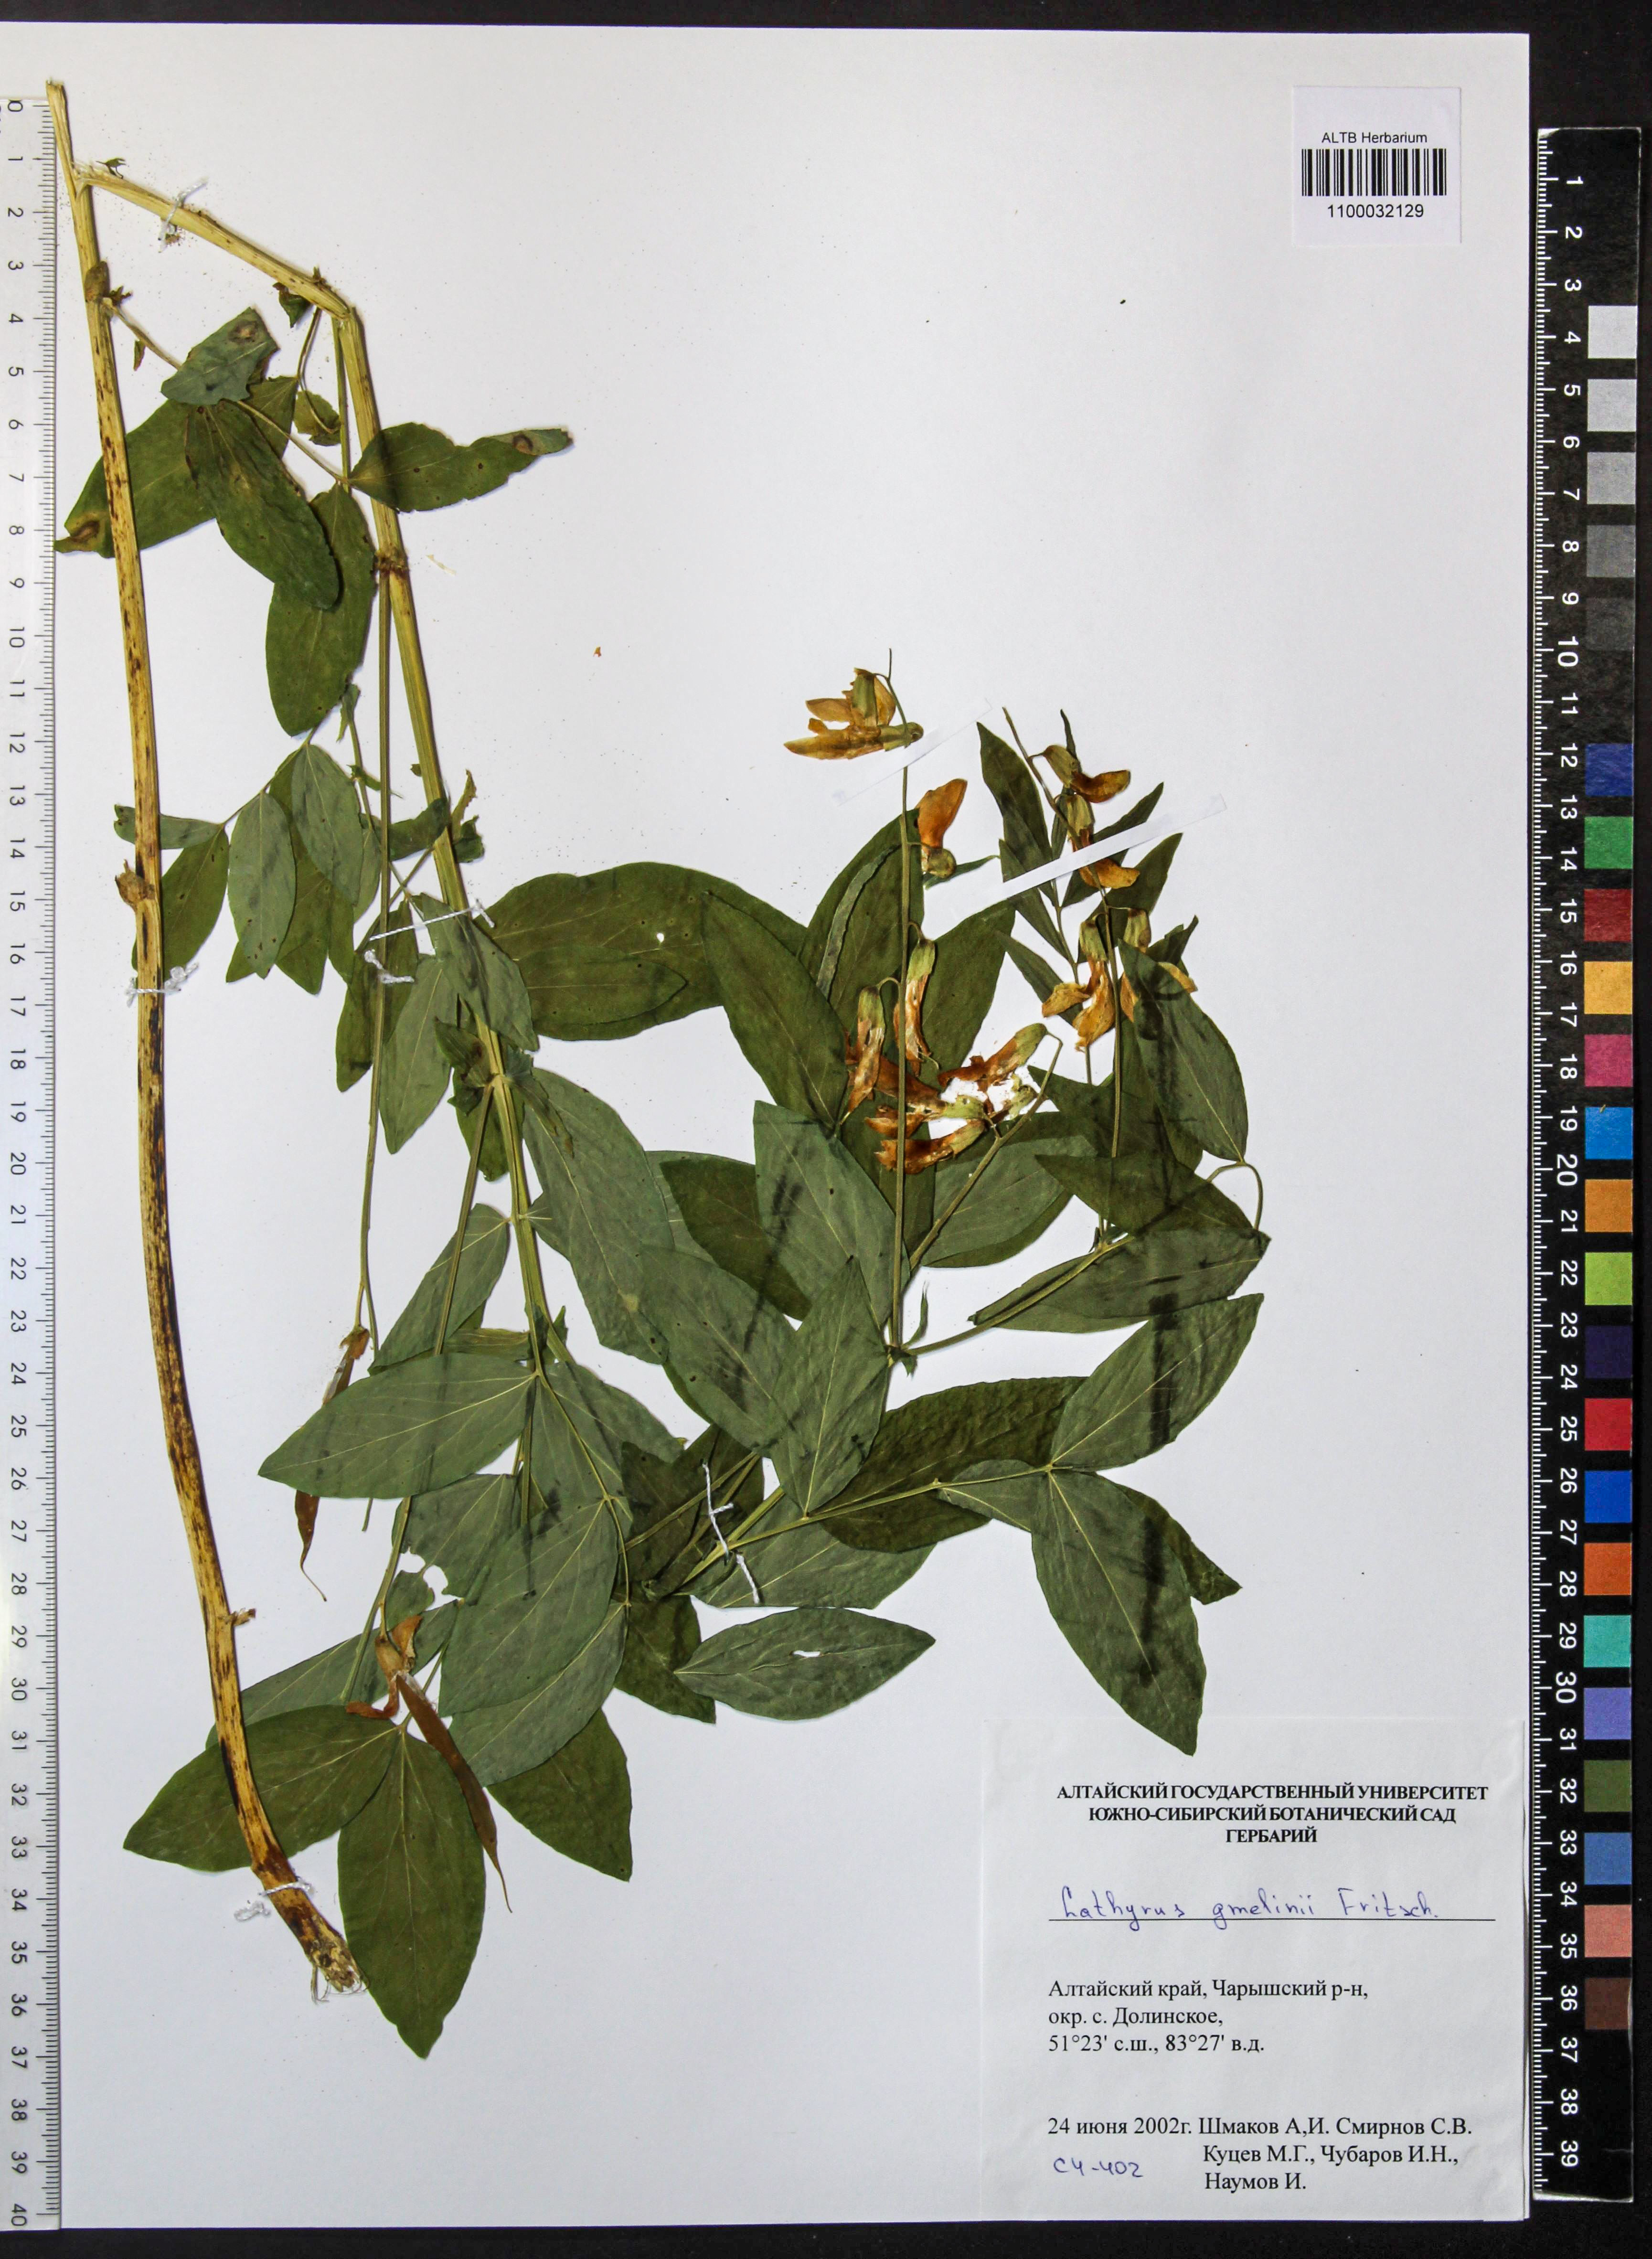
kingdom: Plantae
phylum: Tracheophyta
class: Magnoliopsida
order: Fabales
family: Fabaceae
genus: Lathyrus
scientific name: Lathyrus gmelinii
